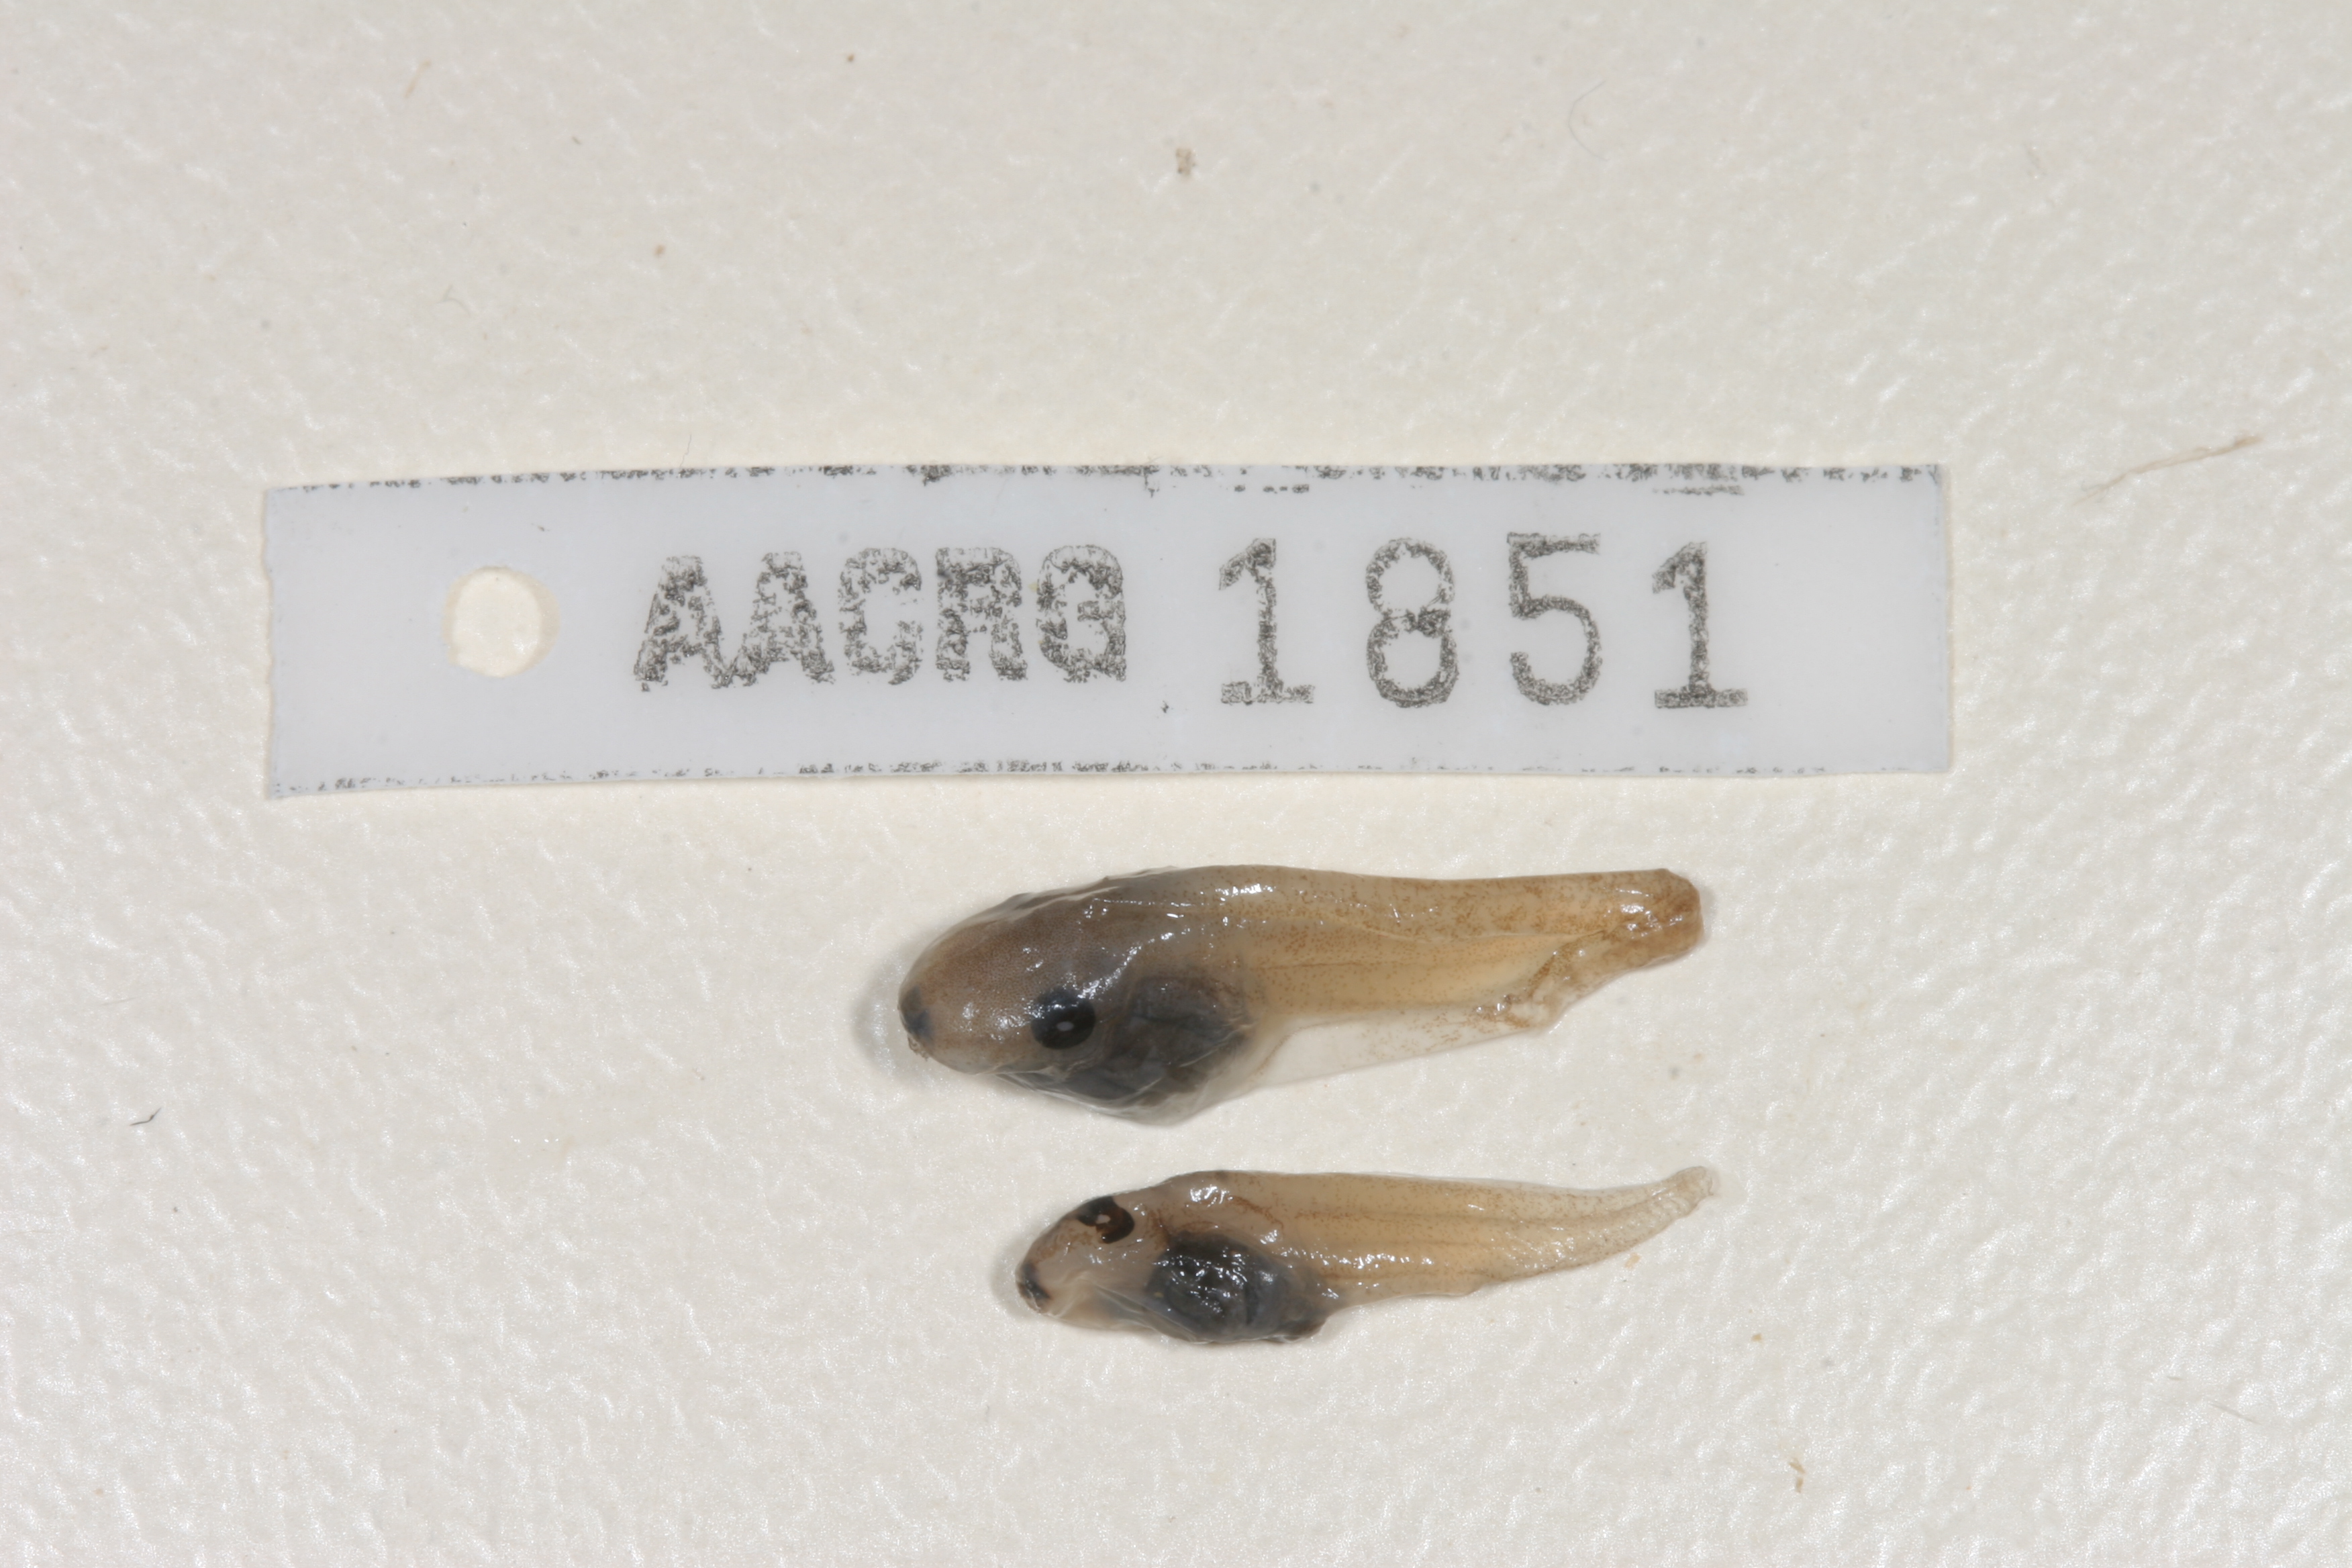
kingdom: Animalia
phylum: Chordata
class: Amphibia
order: Anura
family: Hyperoliidae
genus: Kassina
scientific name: Kassina senegalensis
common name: Senegal land frog
